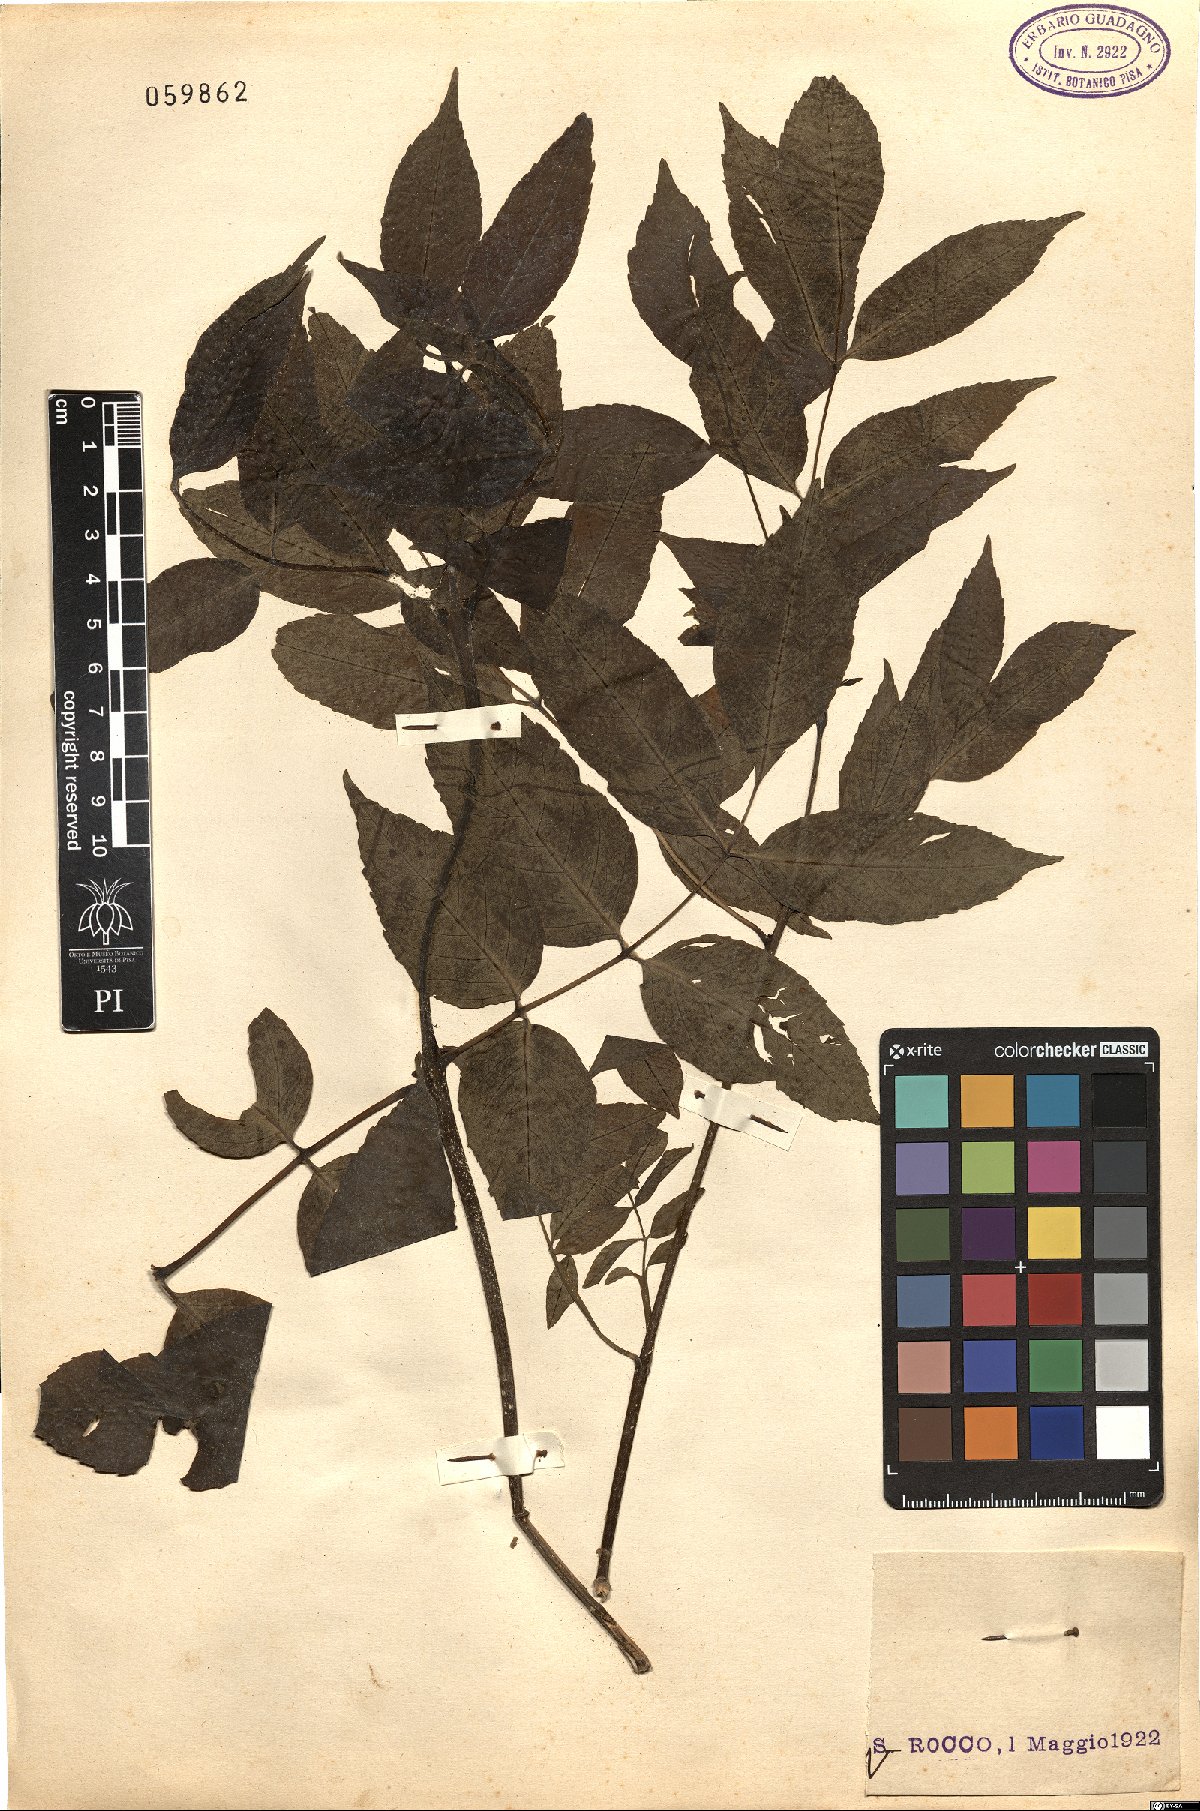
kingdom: Plantae
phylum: Tracheophyta
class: Magnoliopsida
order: Lamiales
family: Oleaceae
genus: Fraxinus
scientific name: Fraxinus ornus
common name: Manna ash
